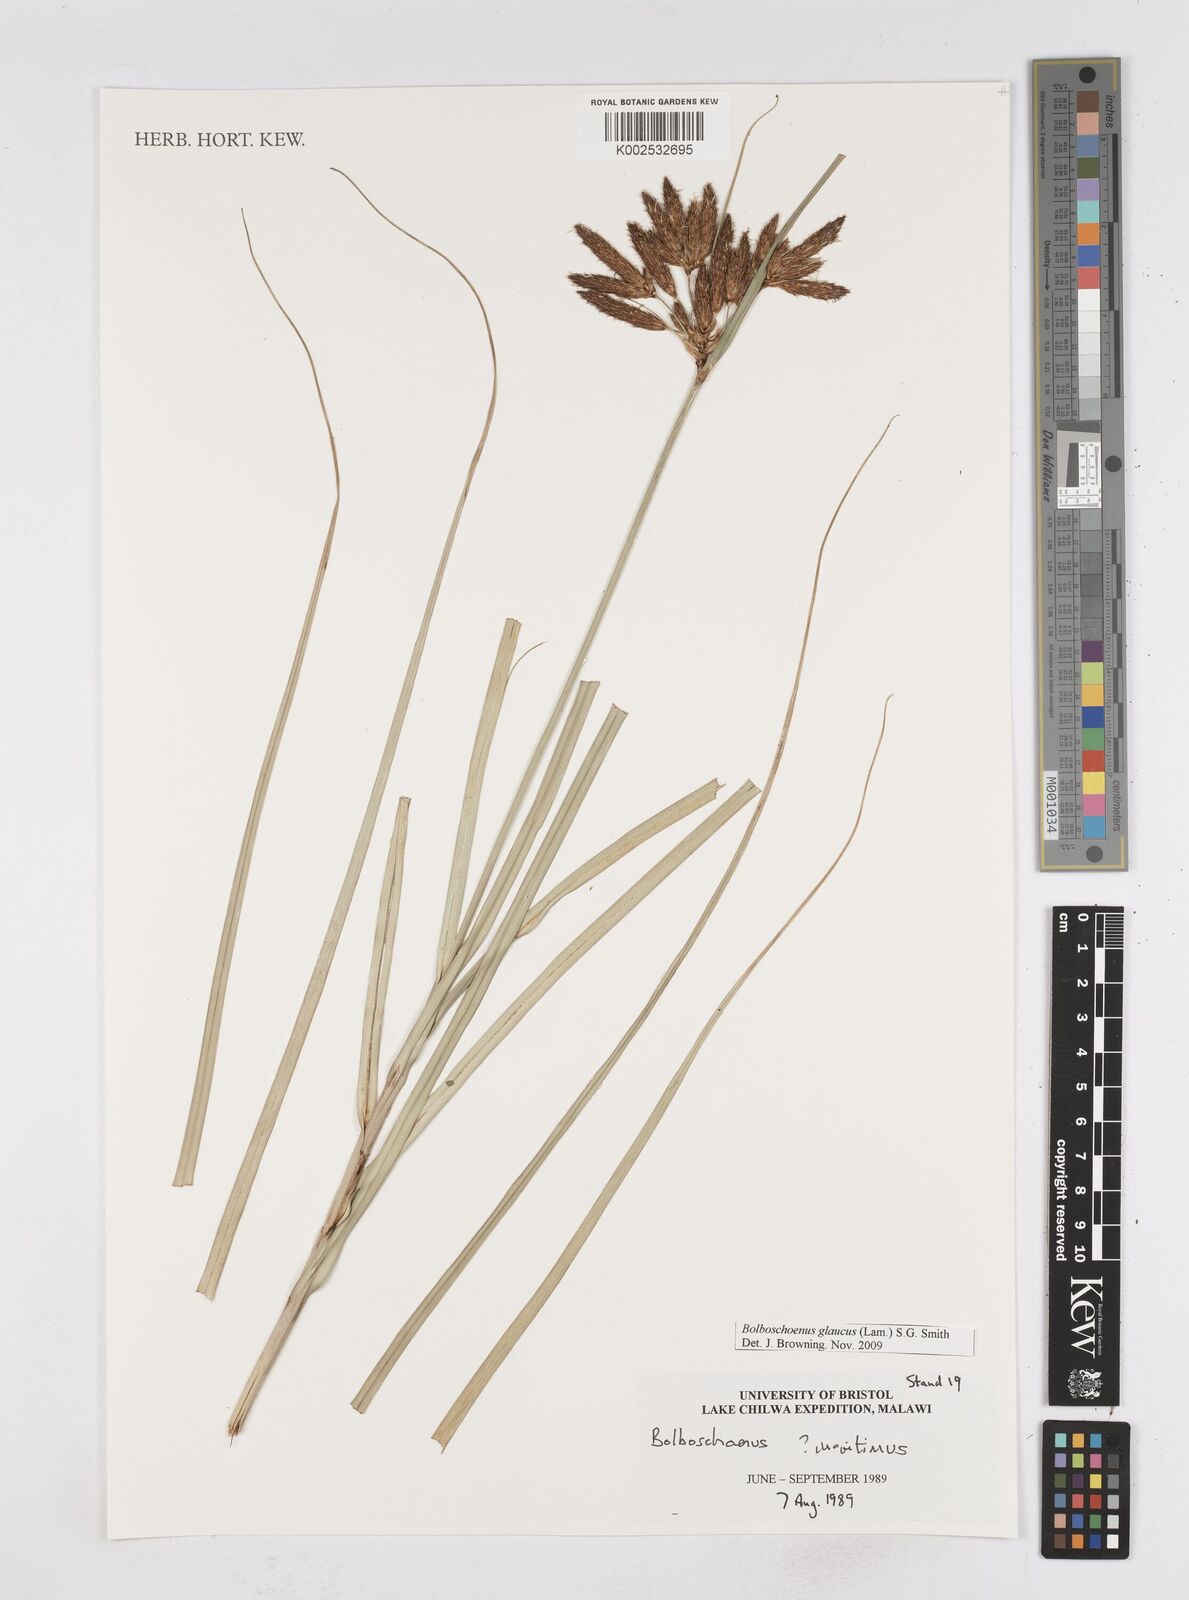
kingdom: Plantae
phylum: Tracheophyta
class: Liliopsida
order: Poales
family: Cyperaceae
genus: Bolboschoenus
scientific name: Bolboschoenus glaucus
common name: Tuberous bulrush
